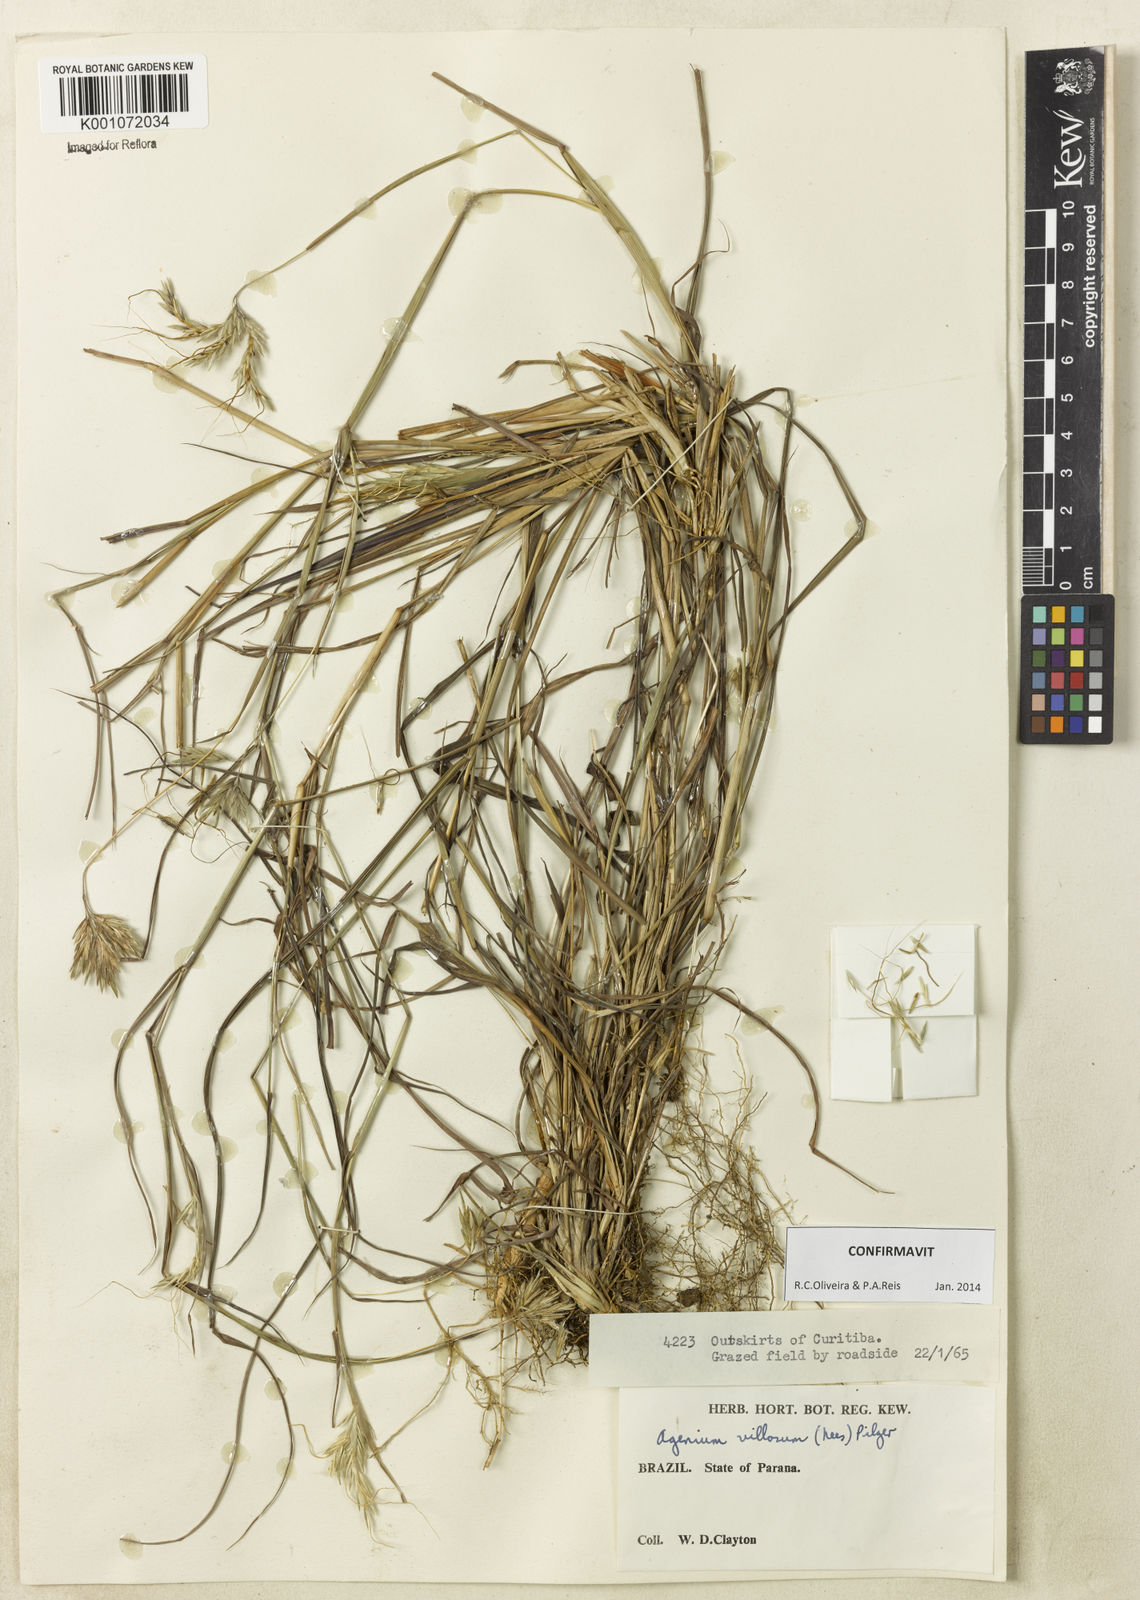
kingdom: Plantae
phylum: Tracheophyta
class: Liliopsida
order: Poales
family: Poaceae
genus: Agenium
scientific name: Agenium villosum
